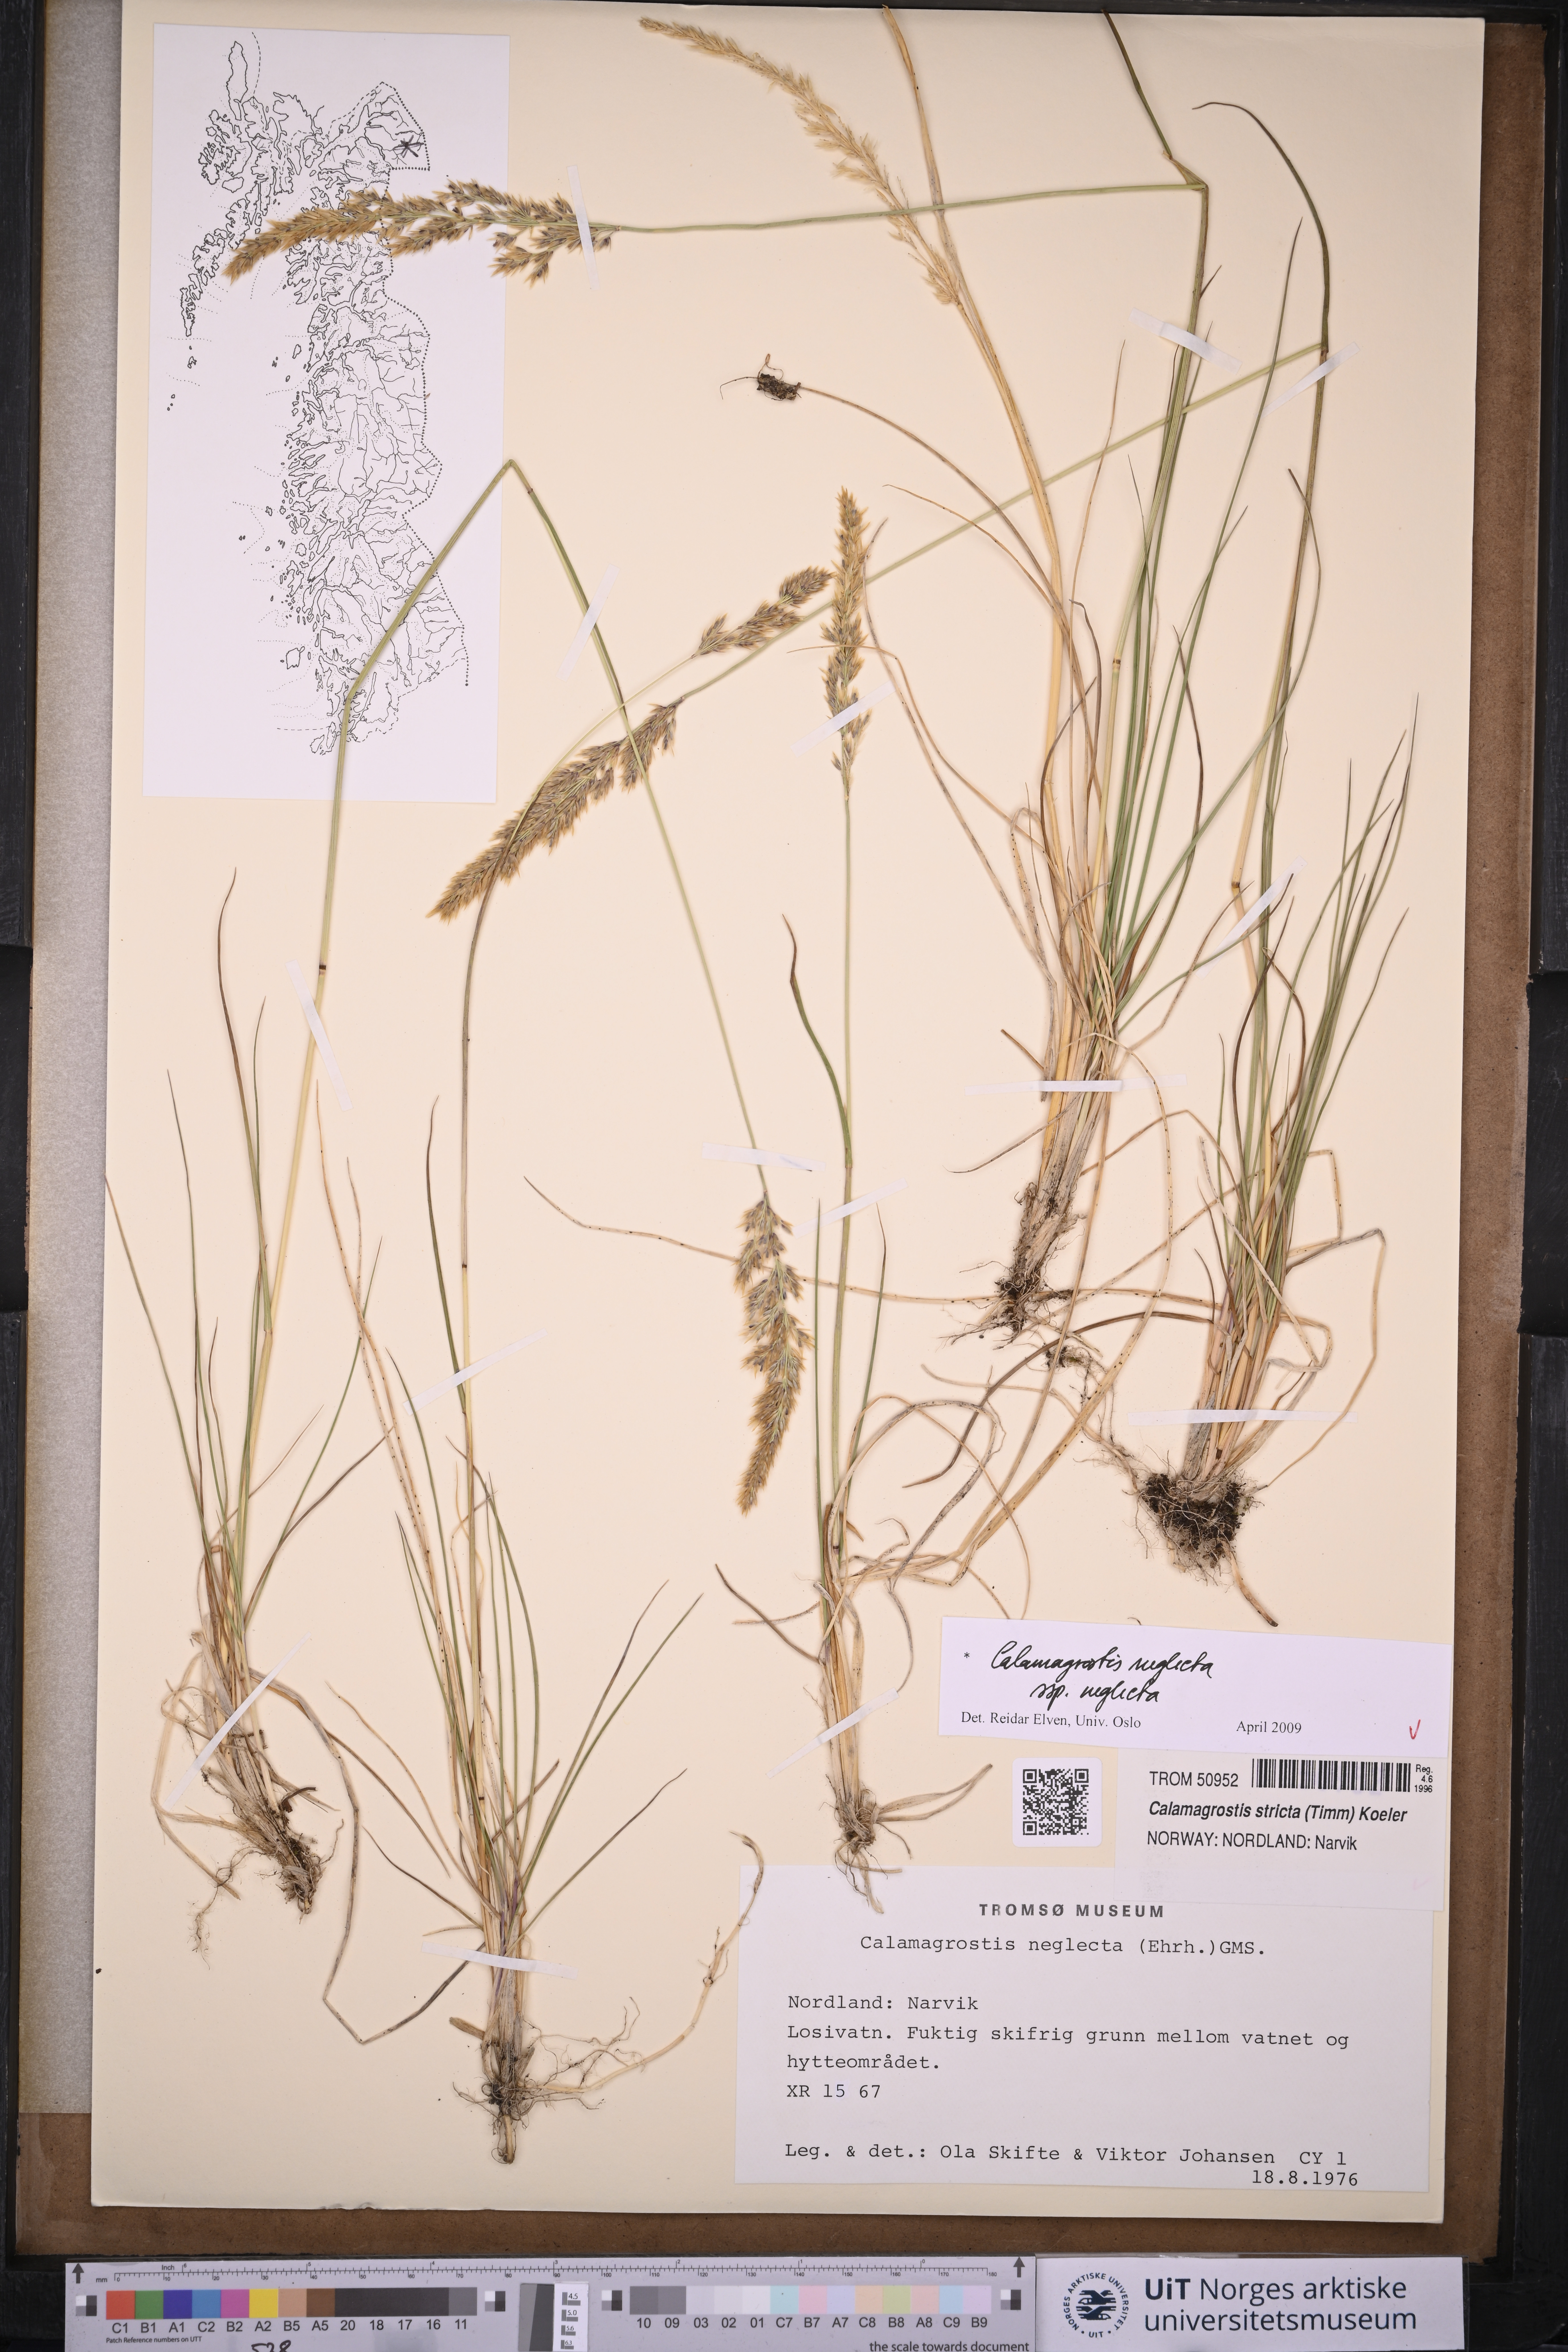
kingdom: Plantae
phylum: Tracheophyta
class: Liliopsida
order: Poales
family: Poaceae
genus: Achnatherum
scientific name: Achnatherum calamagrostis
